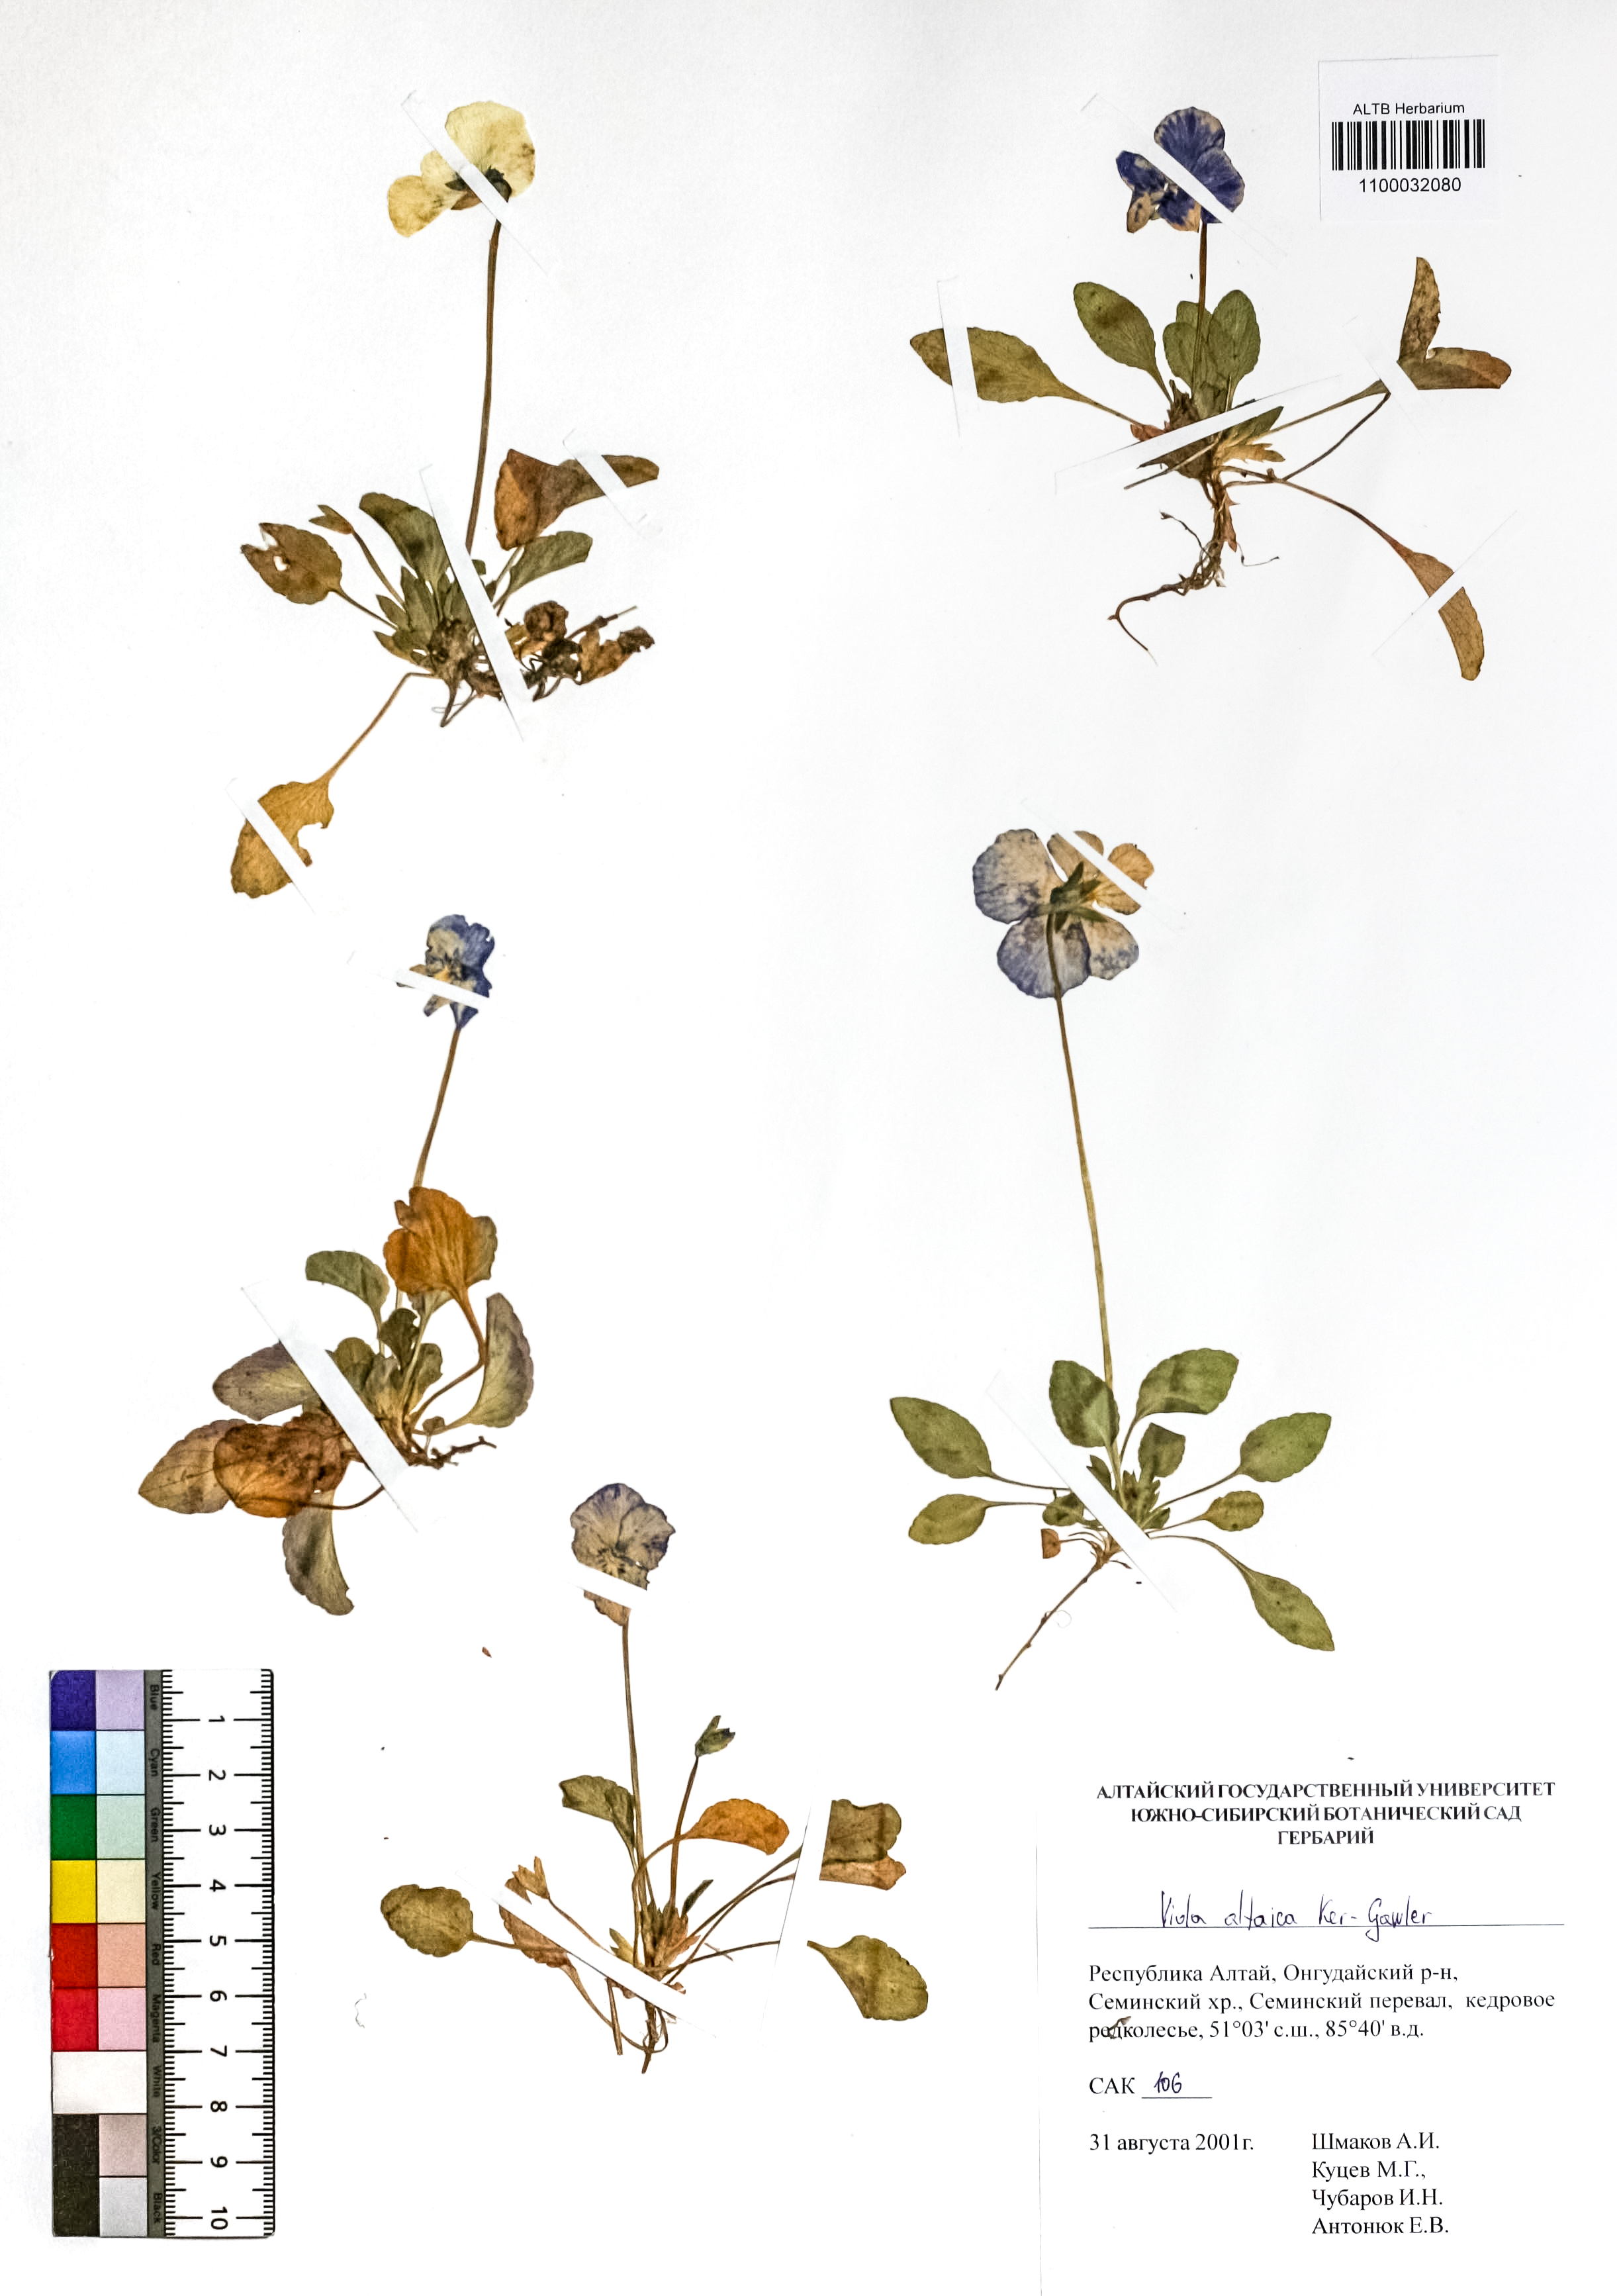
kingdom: Plantae
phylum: Tracheophyta
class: Magnoliopsida
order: Malpighiales
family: Violaceae
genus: Viola
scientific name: Viola altaica
